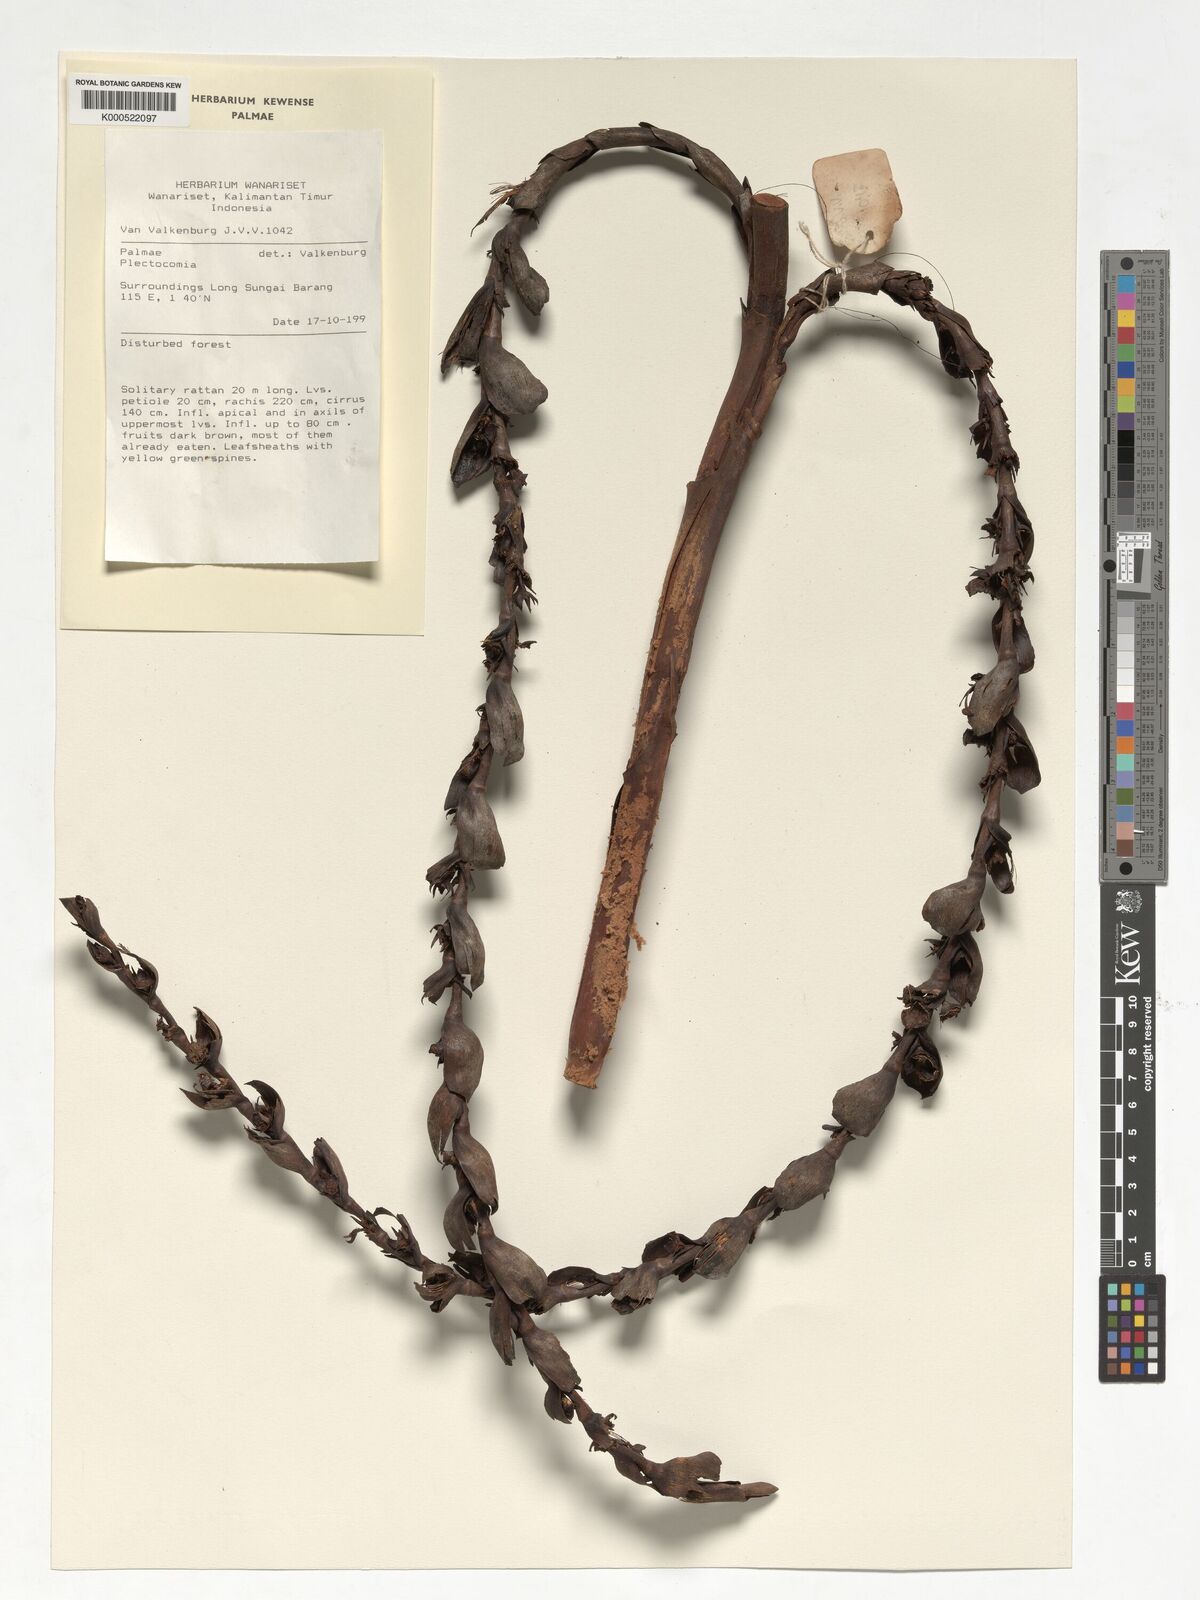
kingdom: Plantae
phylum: Tracheophyta
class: Liliopsida
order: Arecales
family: Arecaceae
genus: Plectocomia
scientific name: Plectocomia
